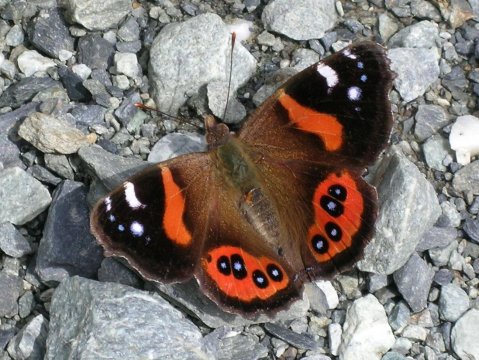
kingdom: Animalia
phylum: Arthropoda
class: Insecta
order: Lepidoptera
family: Nymphalidae
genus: Vanessa
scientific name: Vanessa gonerilla
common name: New Zealand Red Admiral
